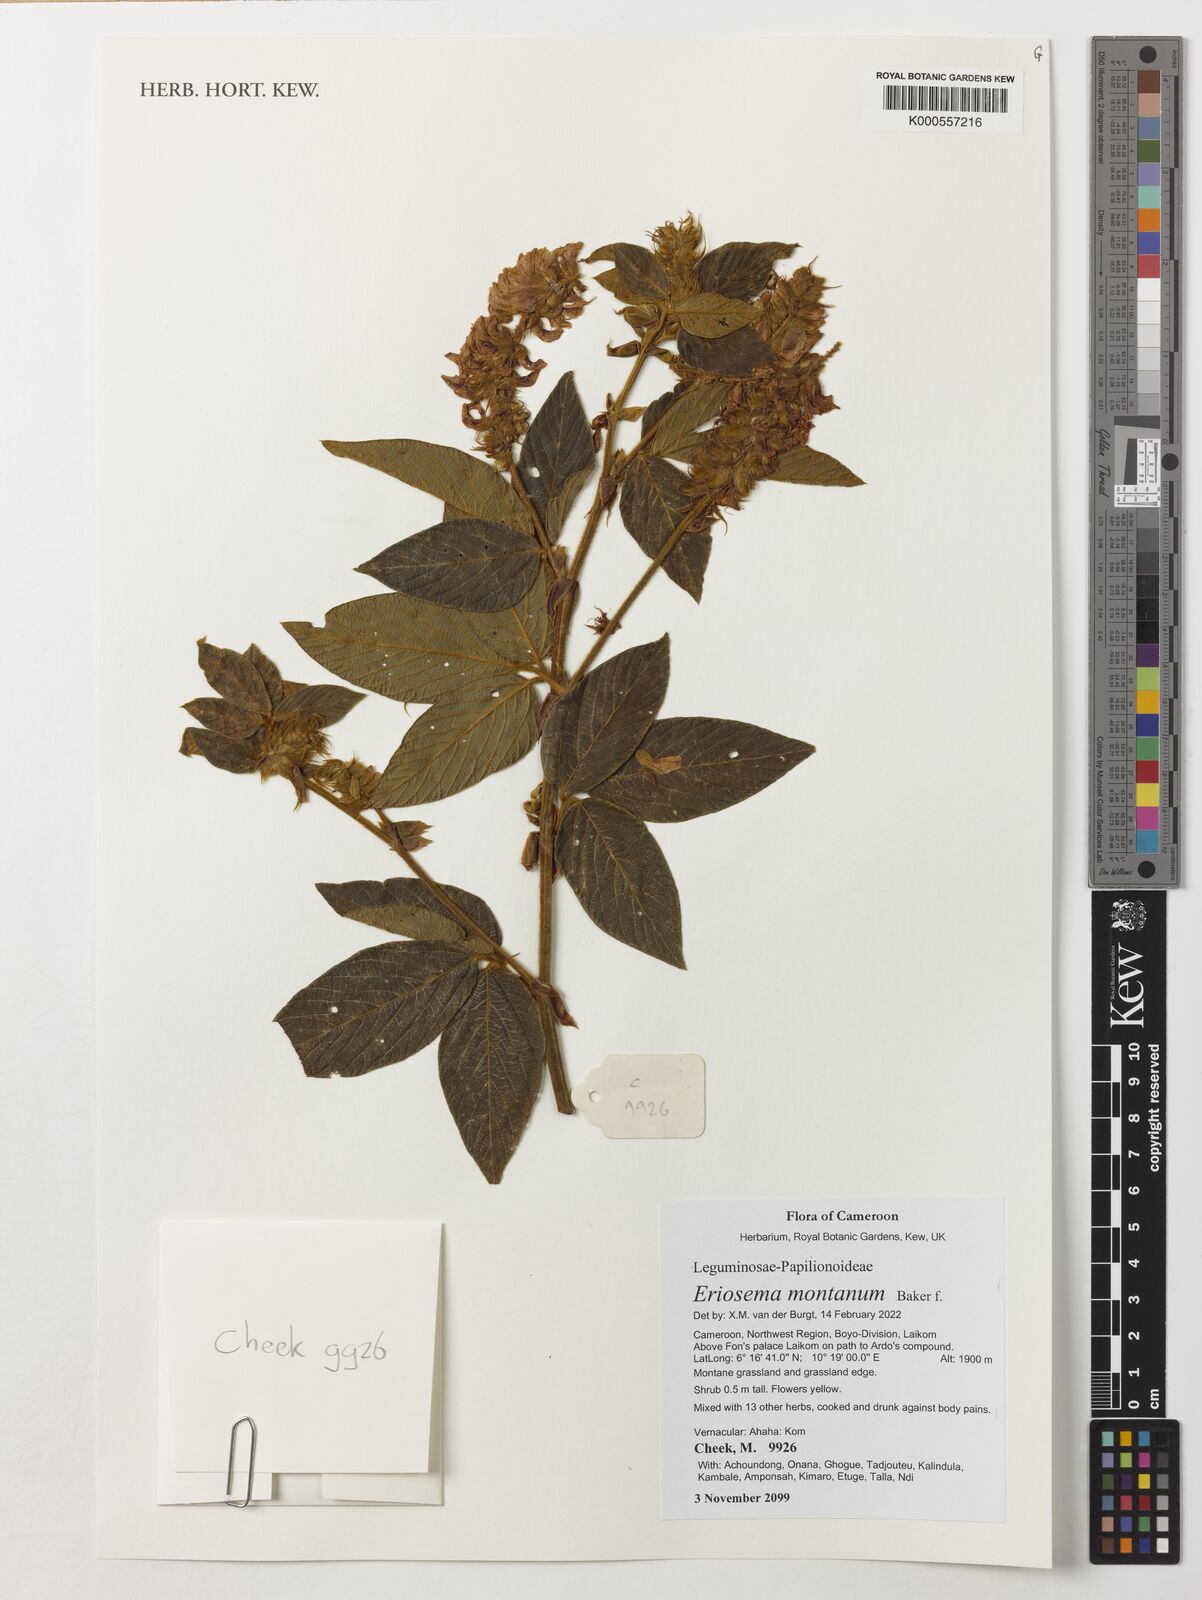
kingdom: Plantae
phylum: Tracheophyta
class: Magnoliopsida
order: Fabales
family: Fabaceae
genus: Indigofera
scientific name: Indigofera heudelotii
